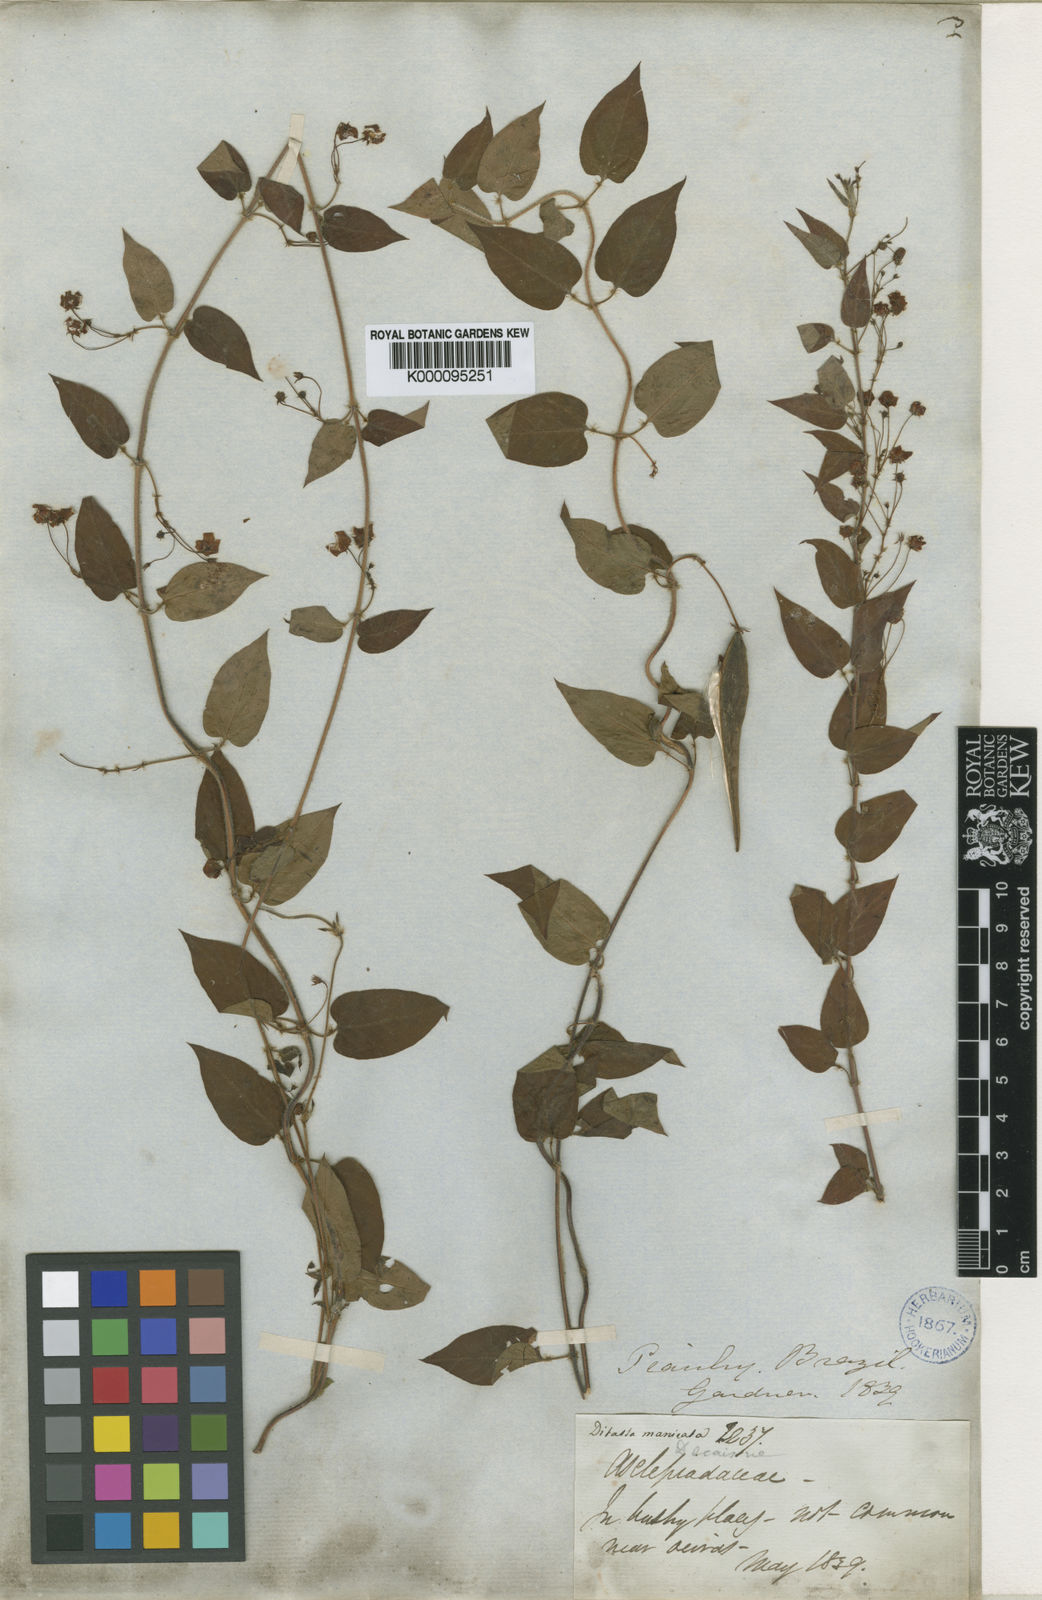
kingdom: Plantae
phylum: Tracheophyta
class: Magnoliopsida
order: Gentianales
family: Apocynaceae
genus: Blepharodon
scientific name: Blepharodon manicatum
